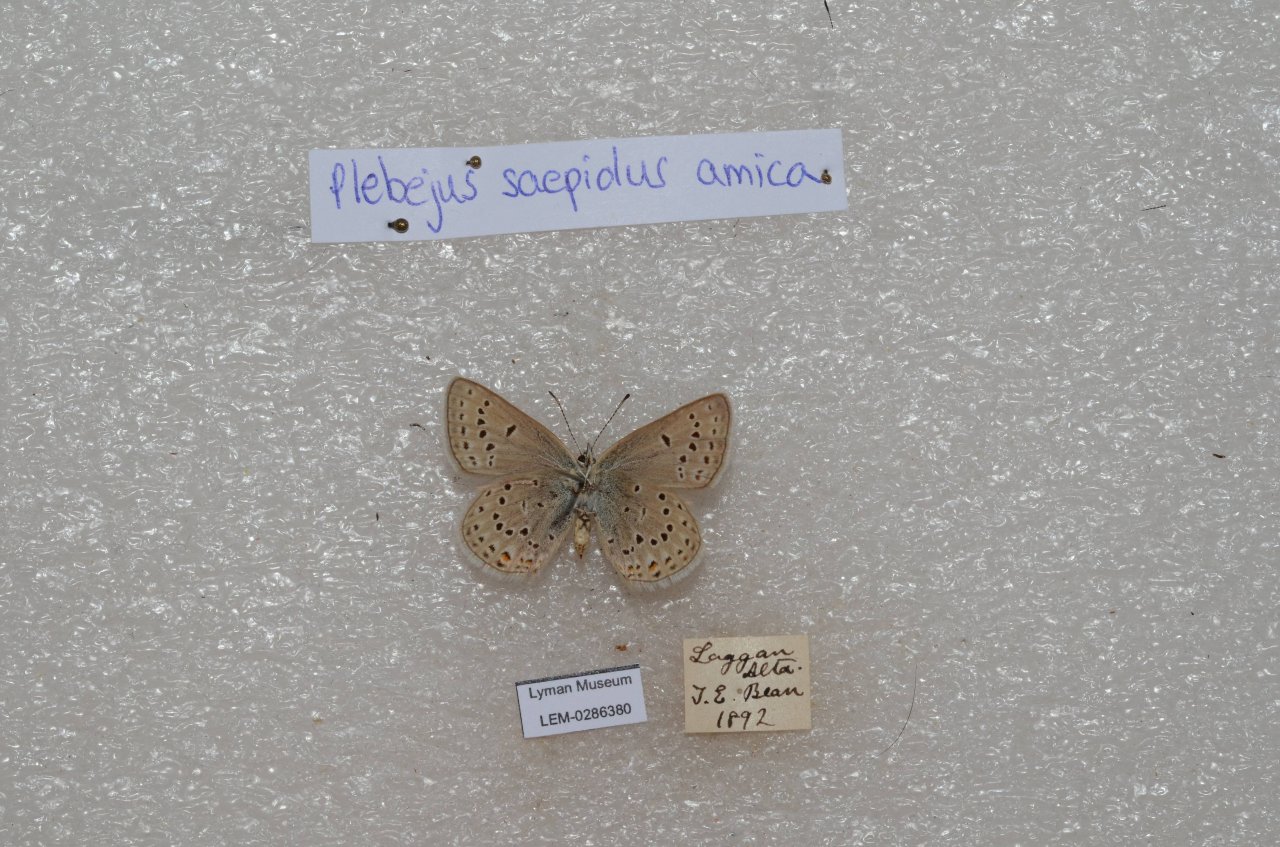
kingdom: Animalia
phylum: Arthropoda
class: Insecta
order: Lepidoptera
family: Lycaenidae
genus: Plebejus
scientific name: Plebejus saepiolus
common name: Greenish Blue
